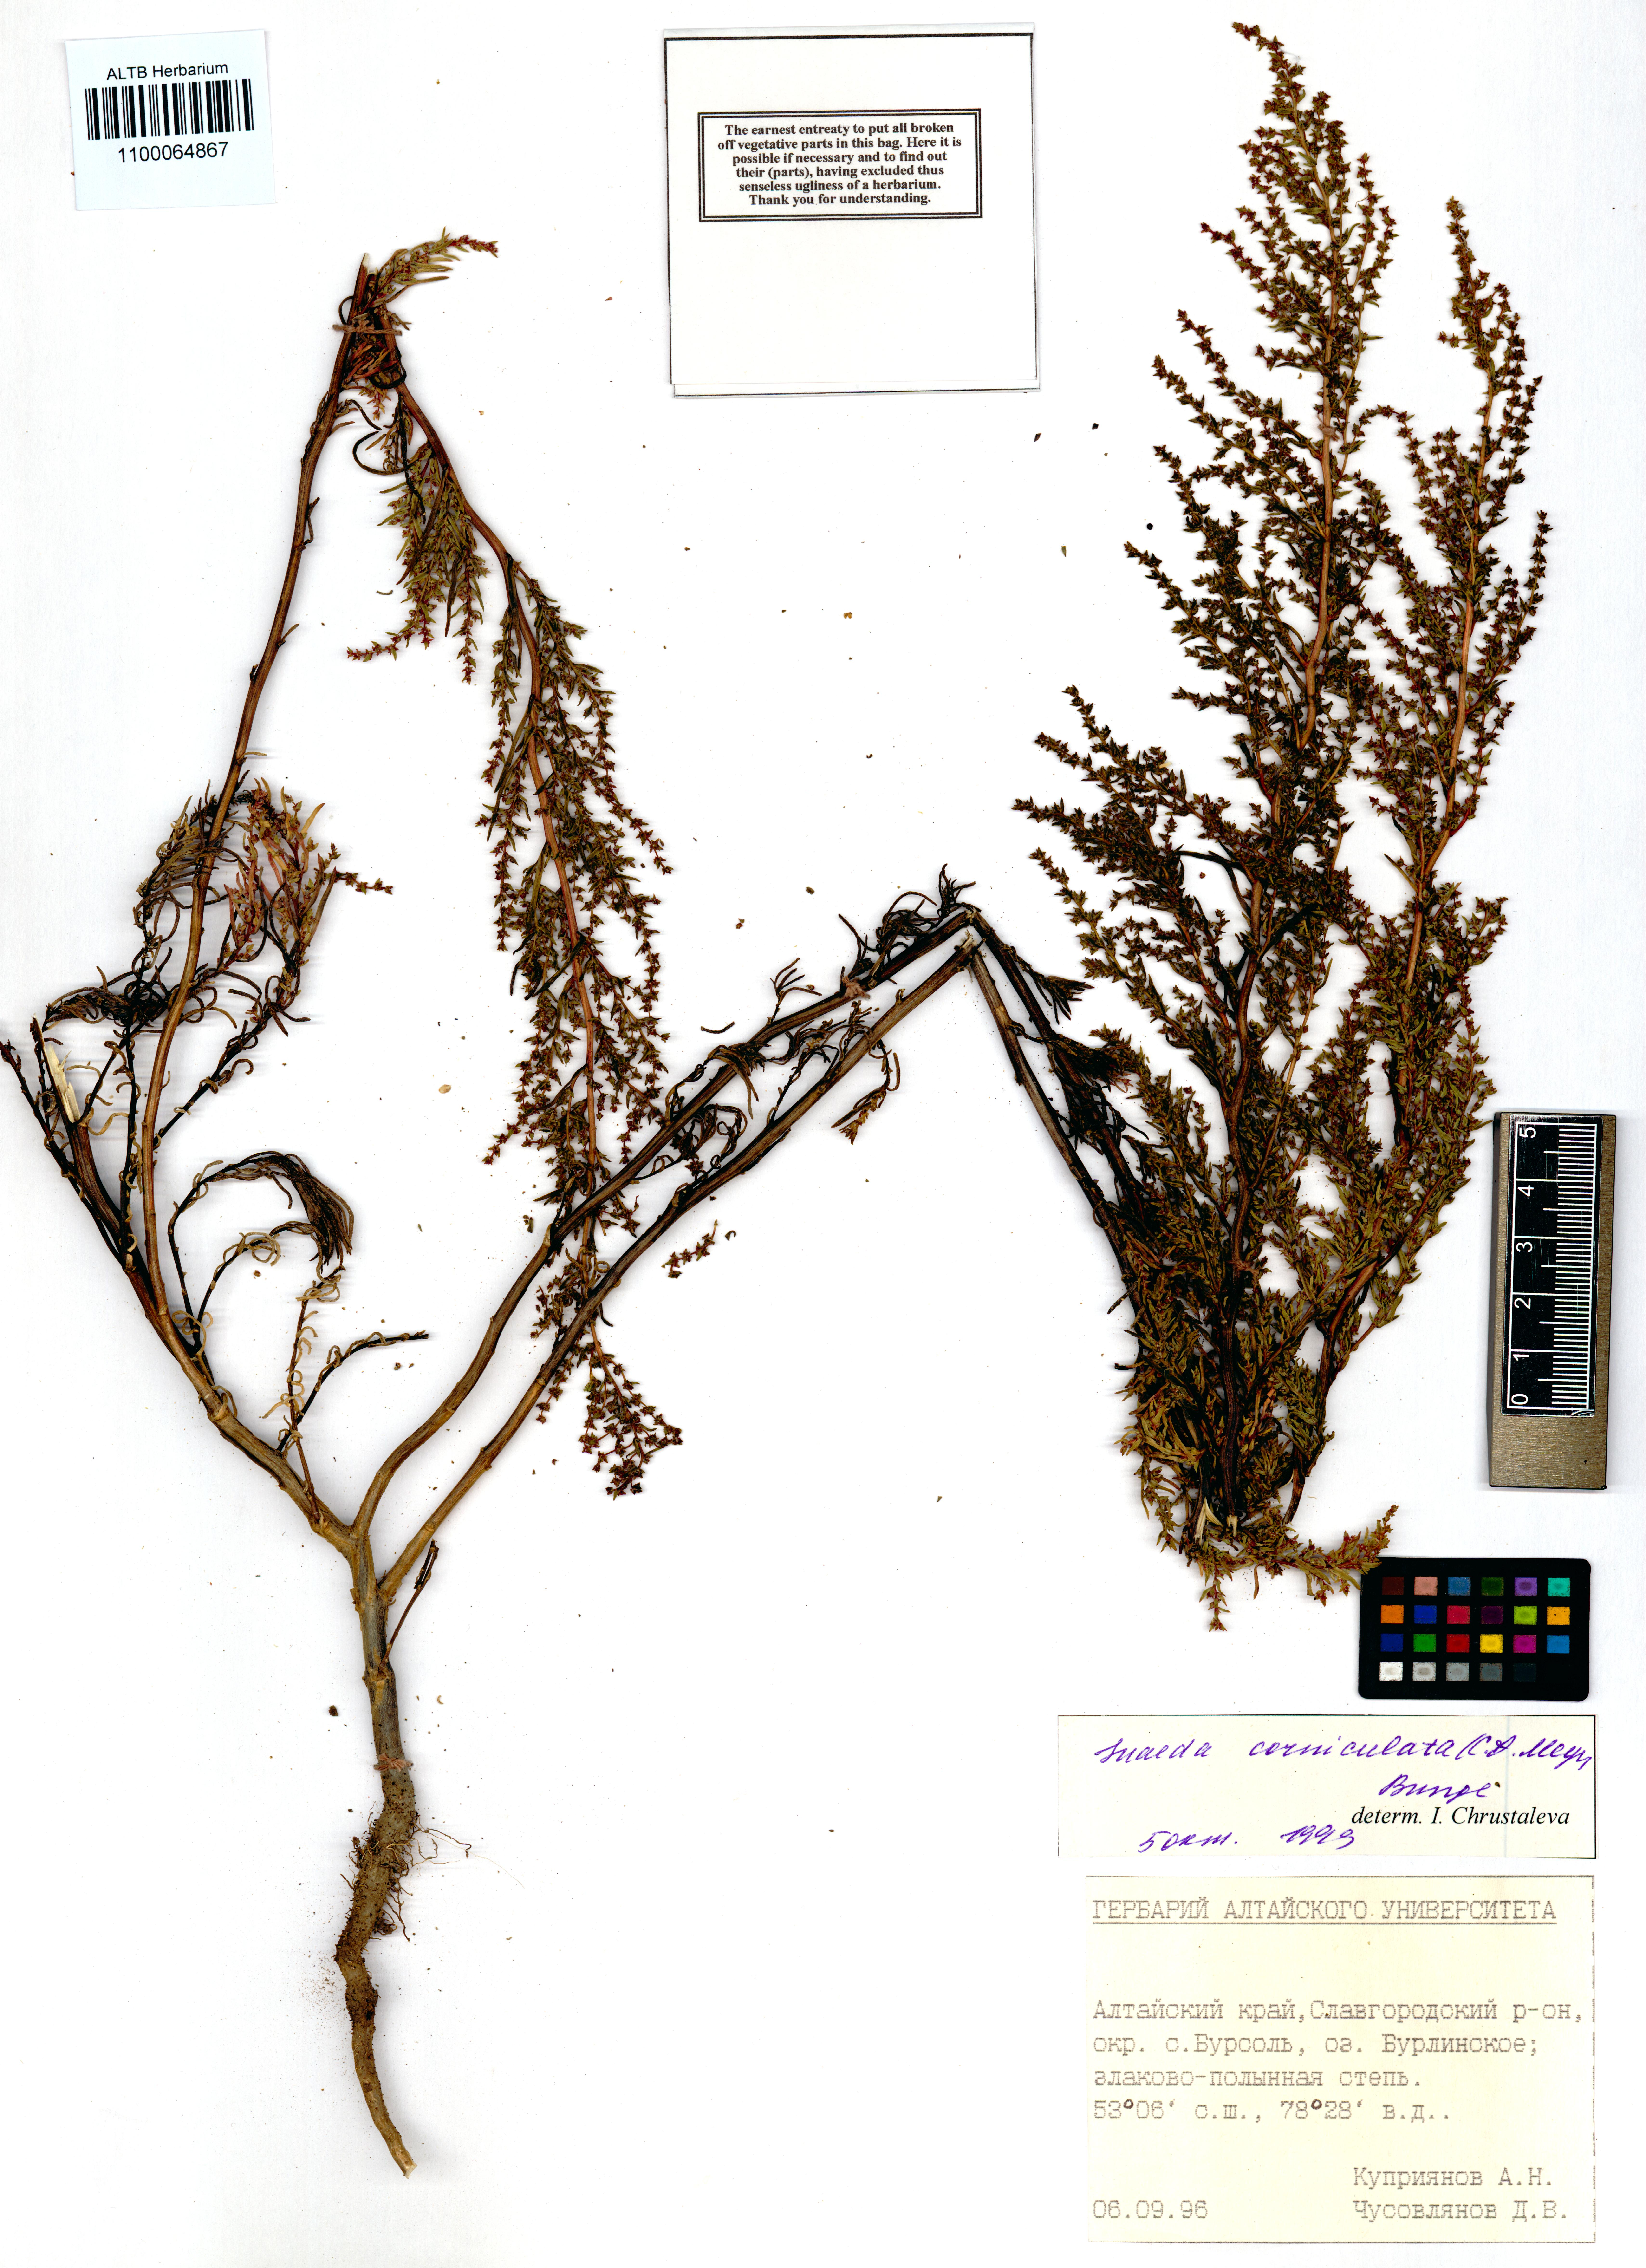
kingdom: Plantae
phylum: Tracheophyta
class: Magnoliopsida
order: Caryophyllales
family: Amaranthaceae
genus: Suaeda
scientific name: Suaeda corniculata
